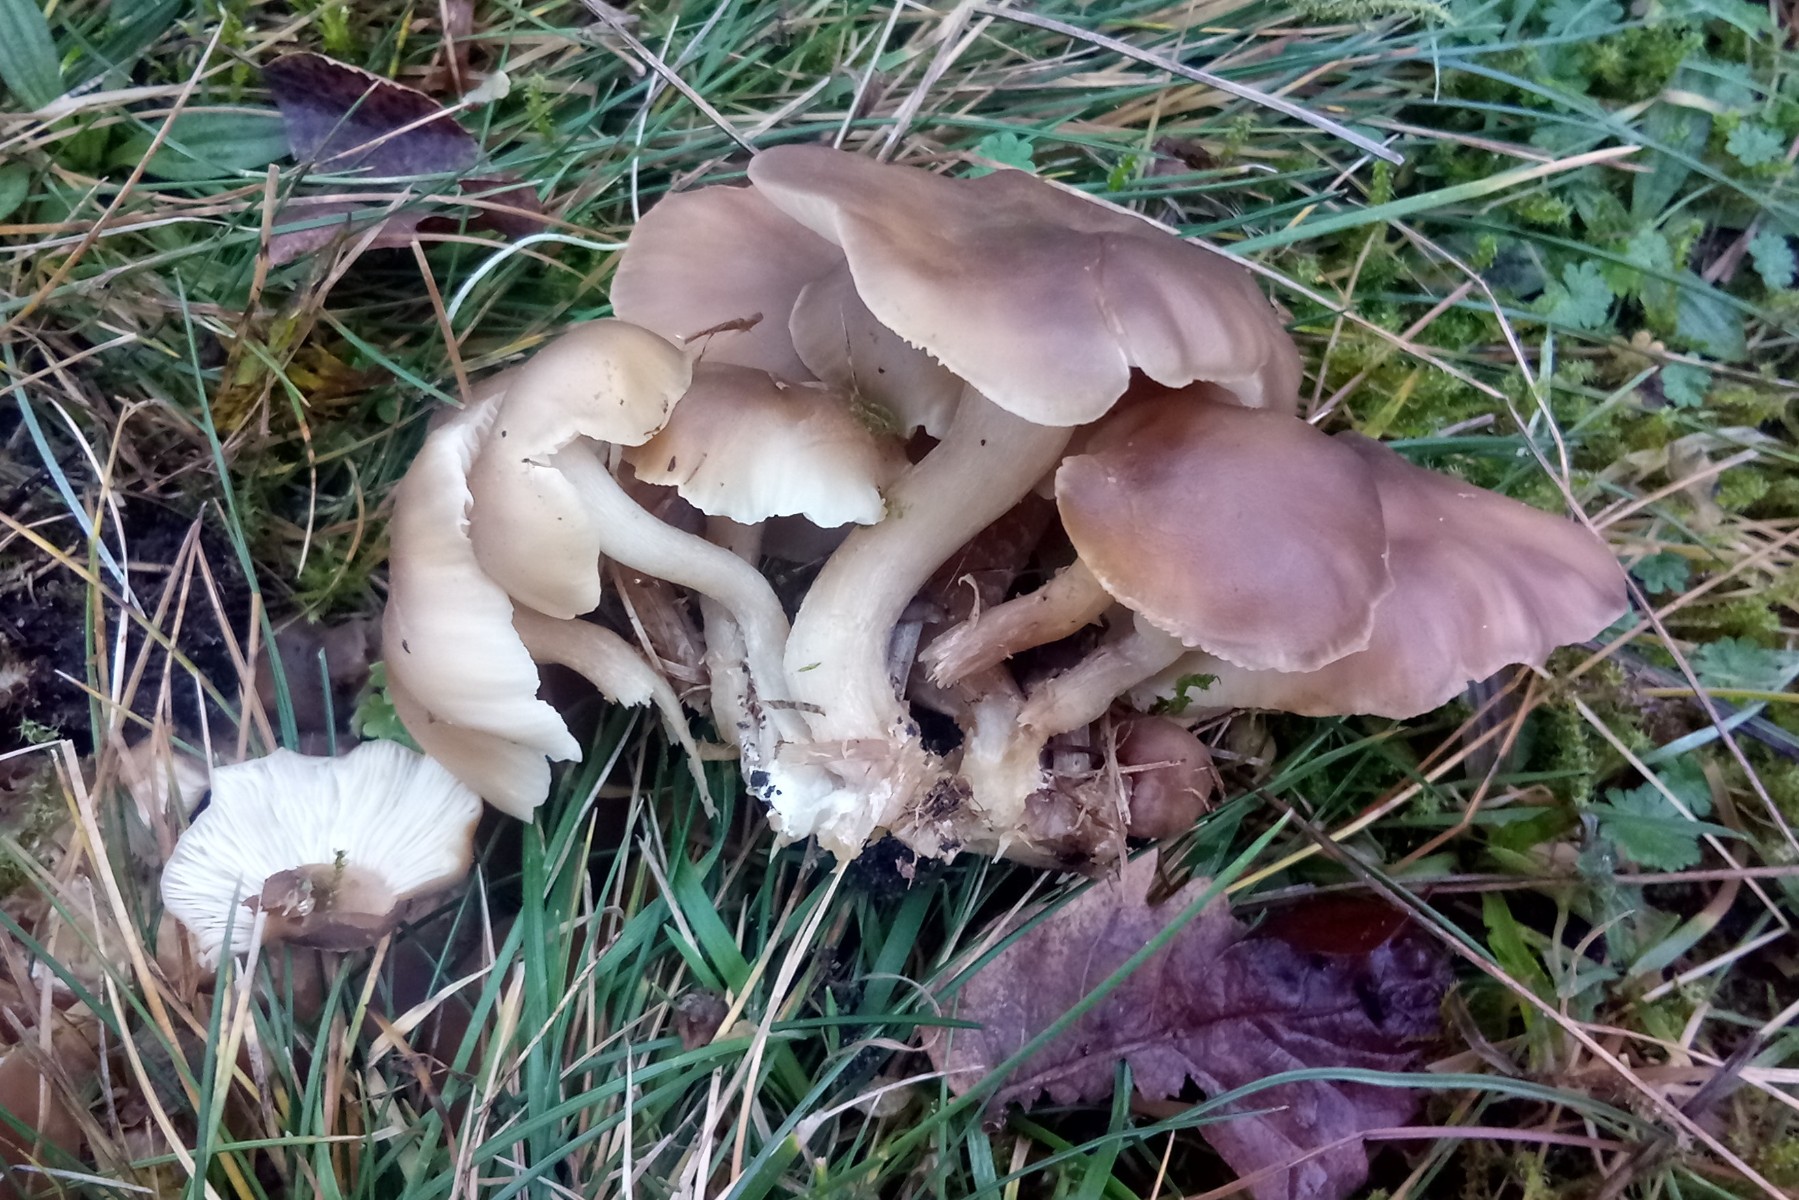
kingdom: Fungi
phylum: Basidiomycota
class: Agaricomycetes
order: Agaricales
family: Lyophyllaceae
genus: Lyophyllum
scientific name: Lyophyllum decastes
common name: røggrå gråblad
